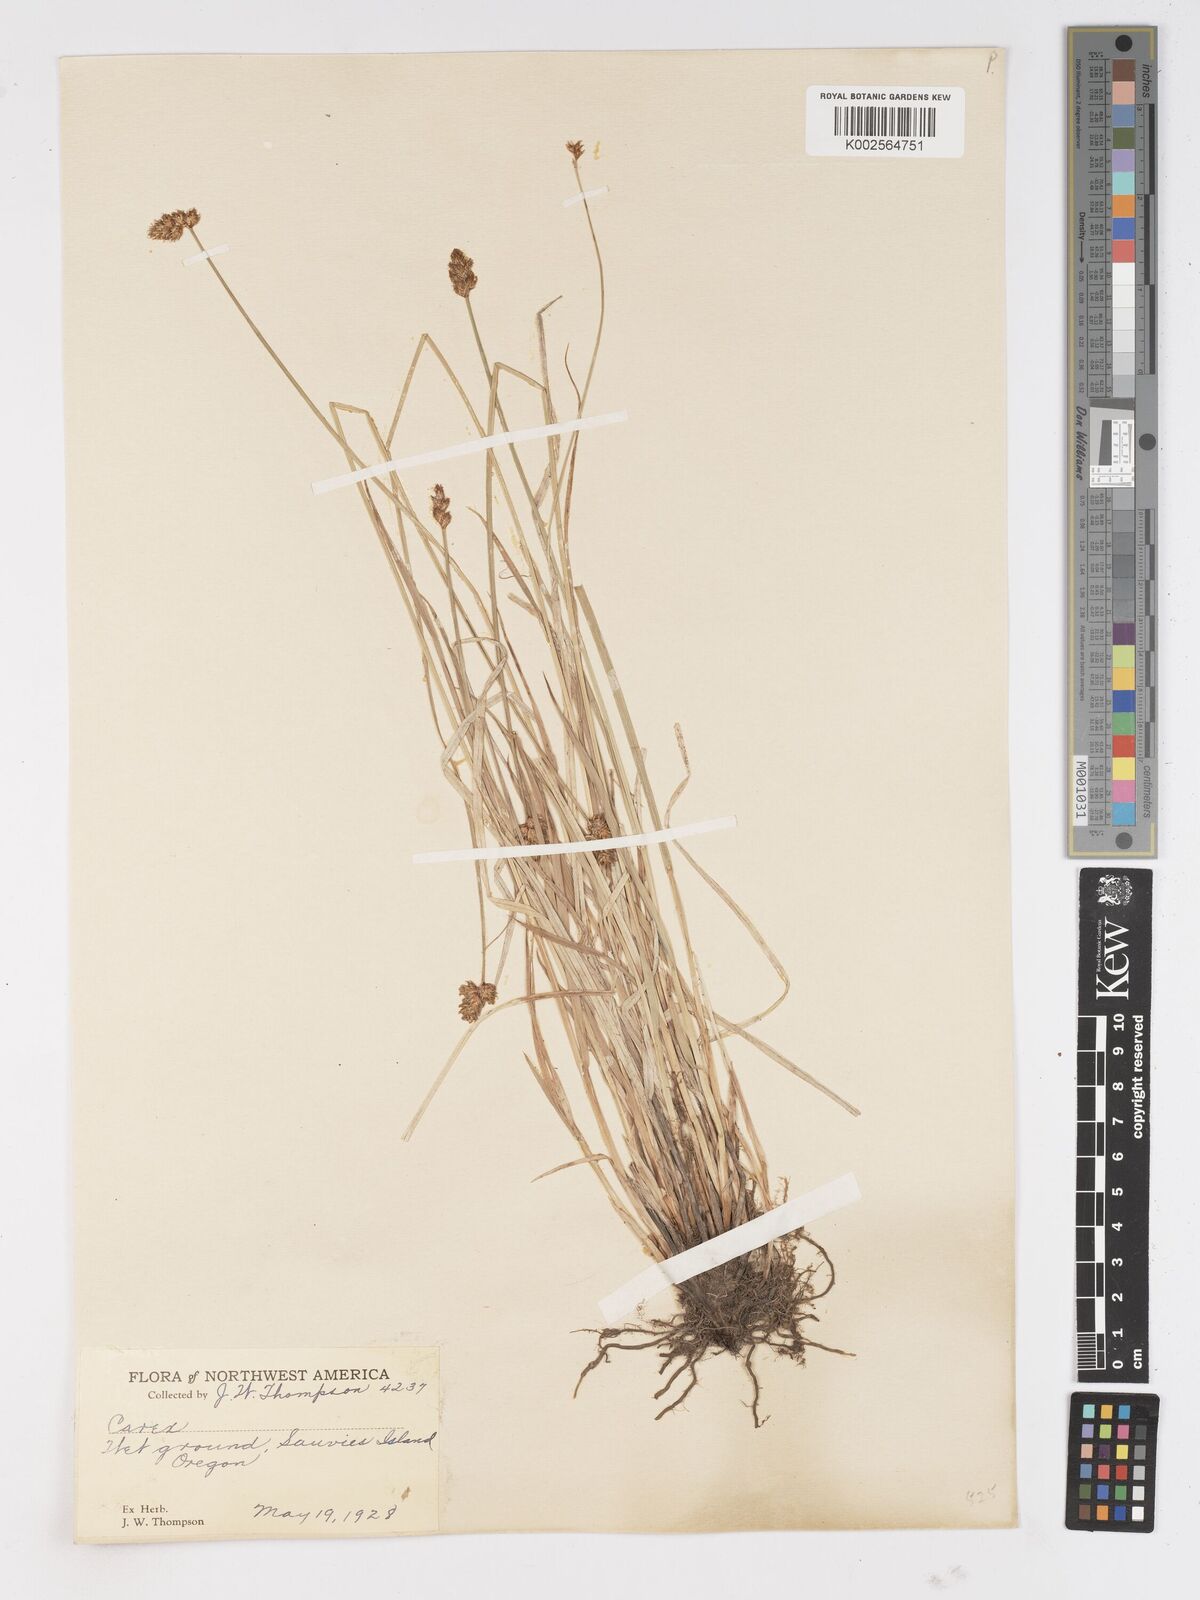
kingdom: Plantae
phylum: Tracheophyta
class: Liliopsida
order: Poales
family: Cyperaceae
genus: Carex
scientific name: Carex
